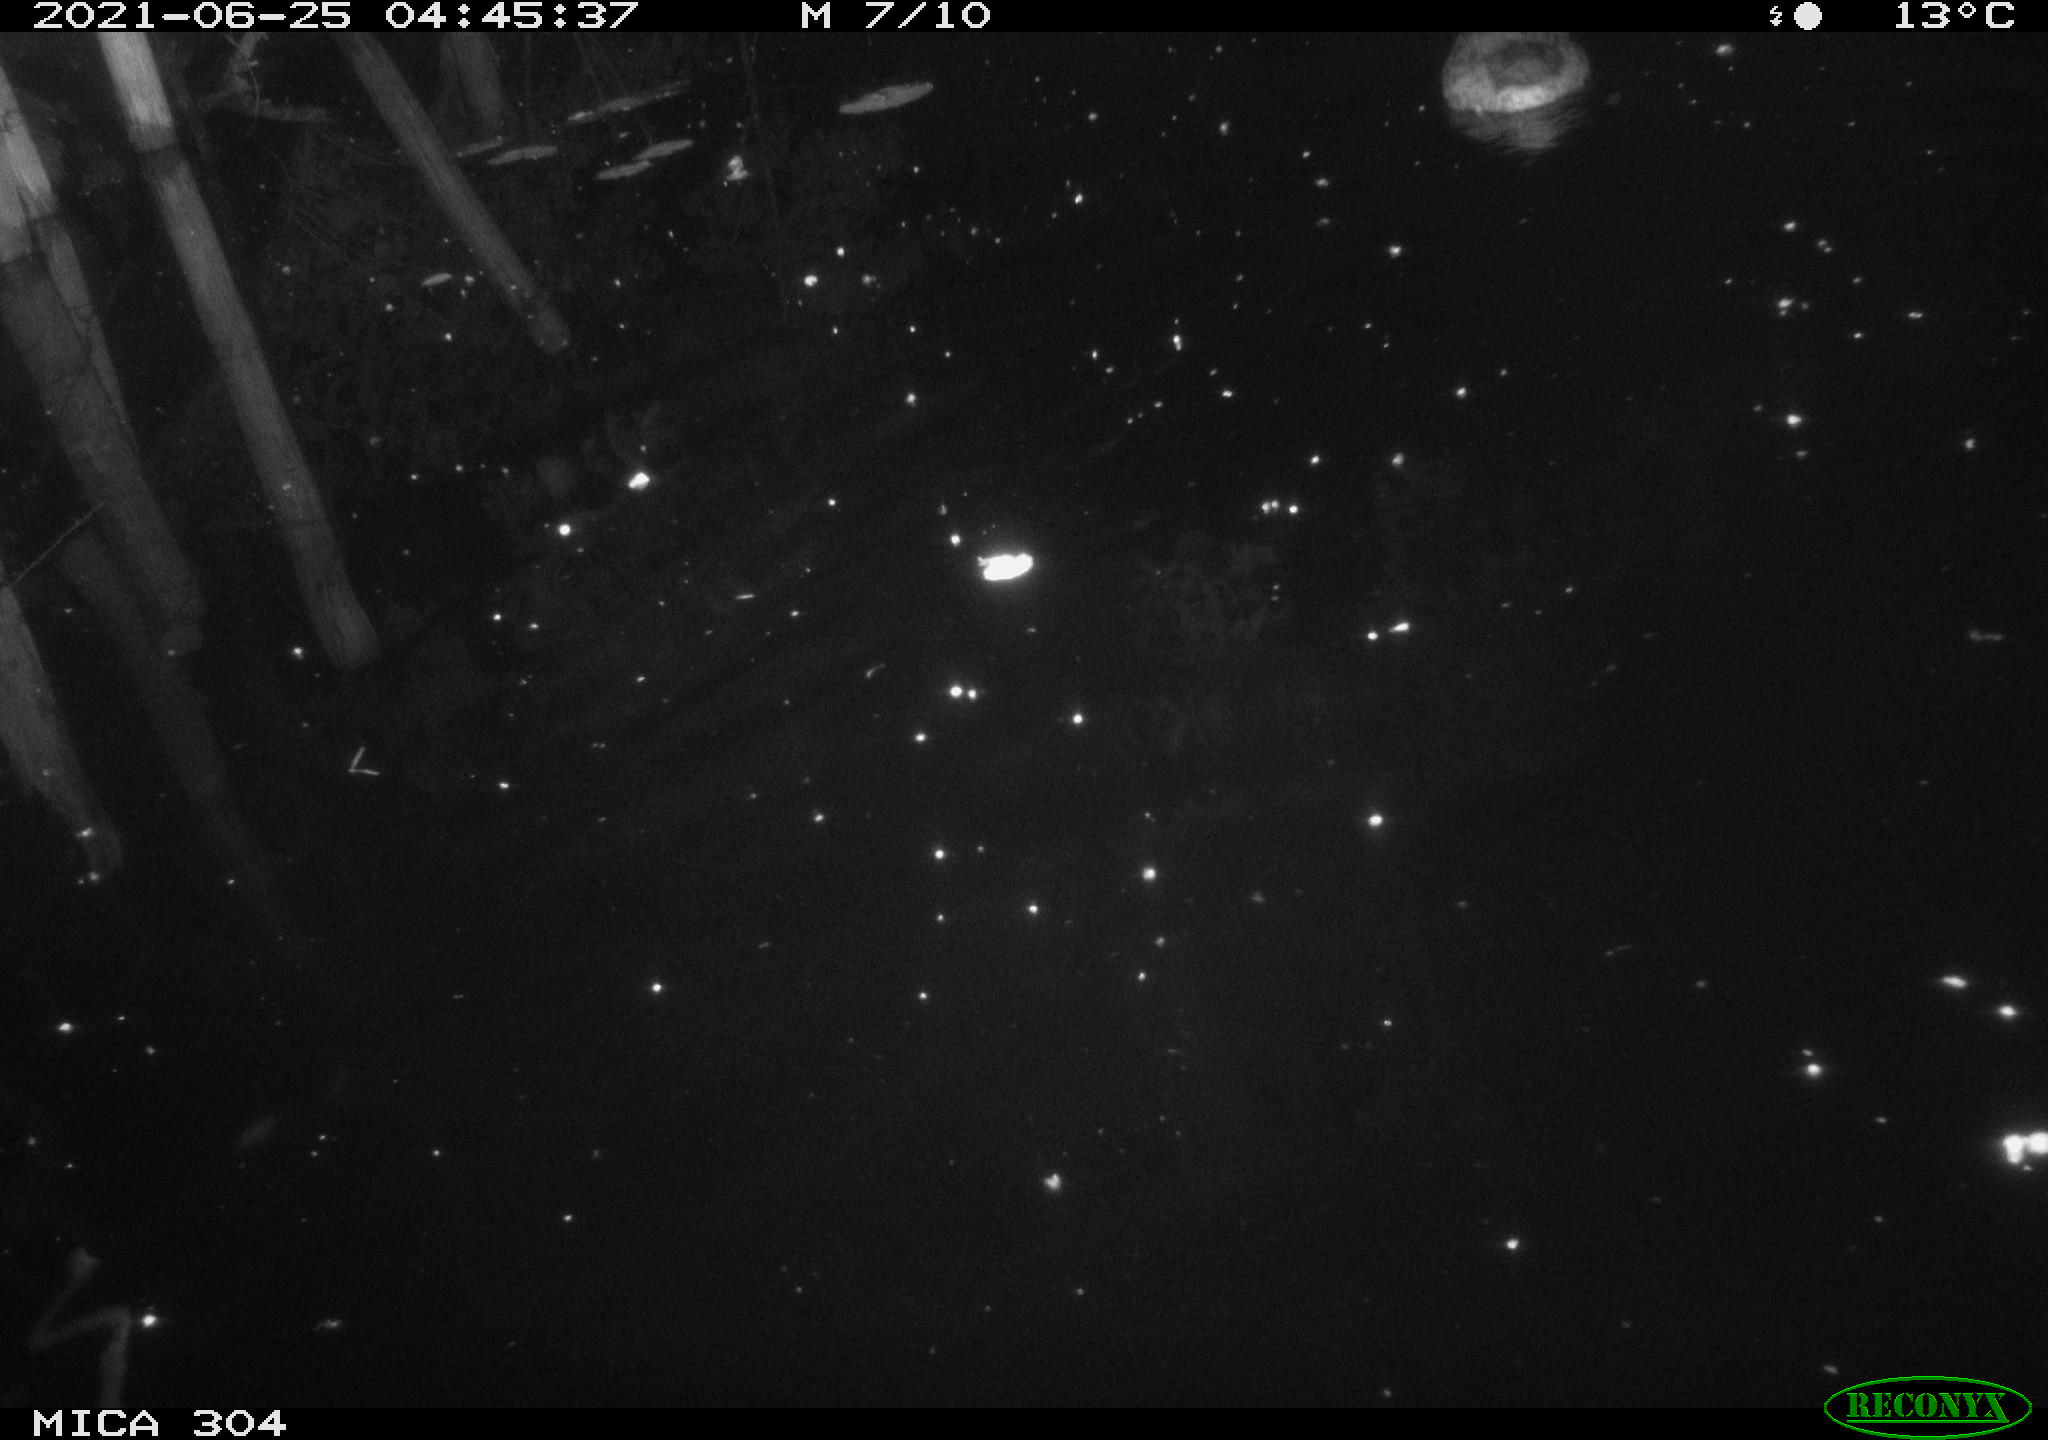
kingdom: Animalia
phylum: Chordata
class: Aves
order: Anseriformes
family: Anatidae
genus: Anas
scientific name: Anas platyrhynchos
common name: Mallard
